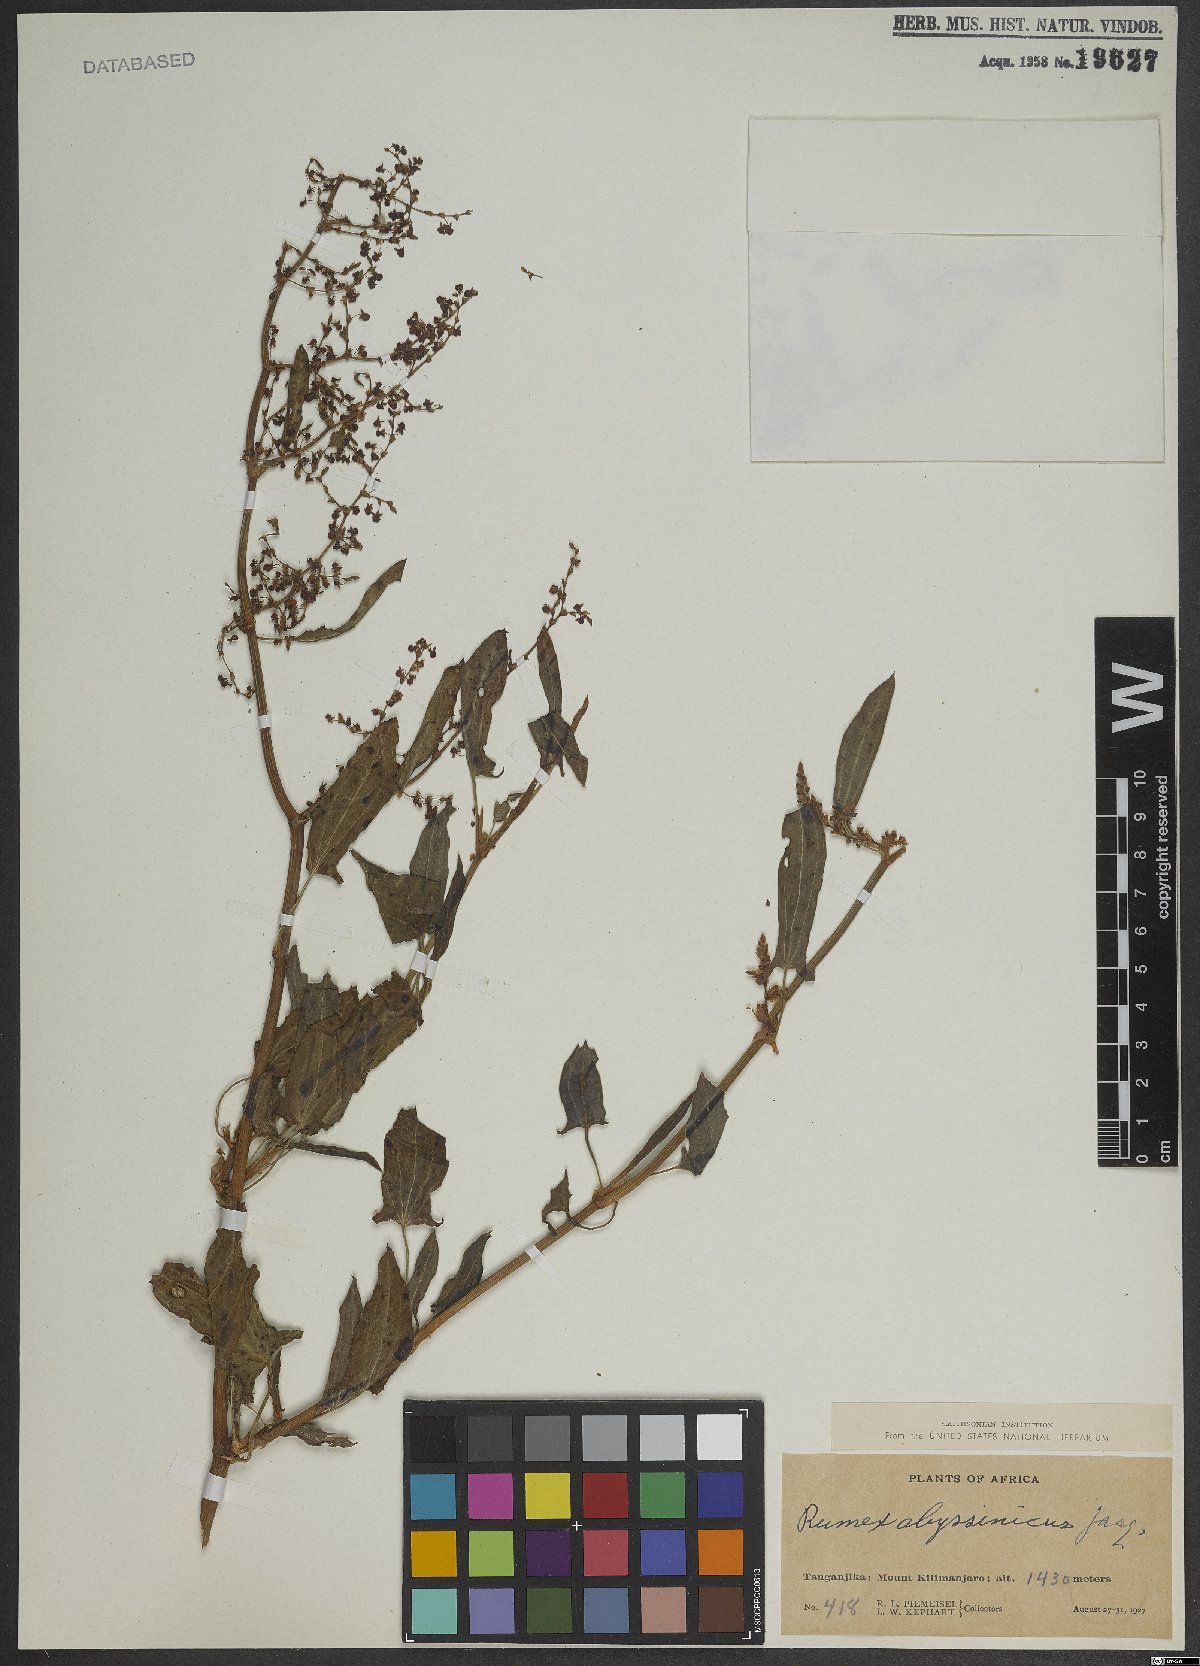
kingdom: Plantae
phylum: Tracheophyta
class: Magnoliopsida
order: Caryophyllales
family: Polygonaceae
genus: Rumex
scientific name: Rumex abyssinicus
